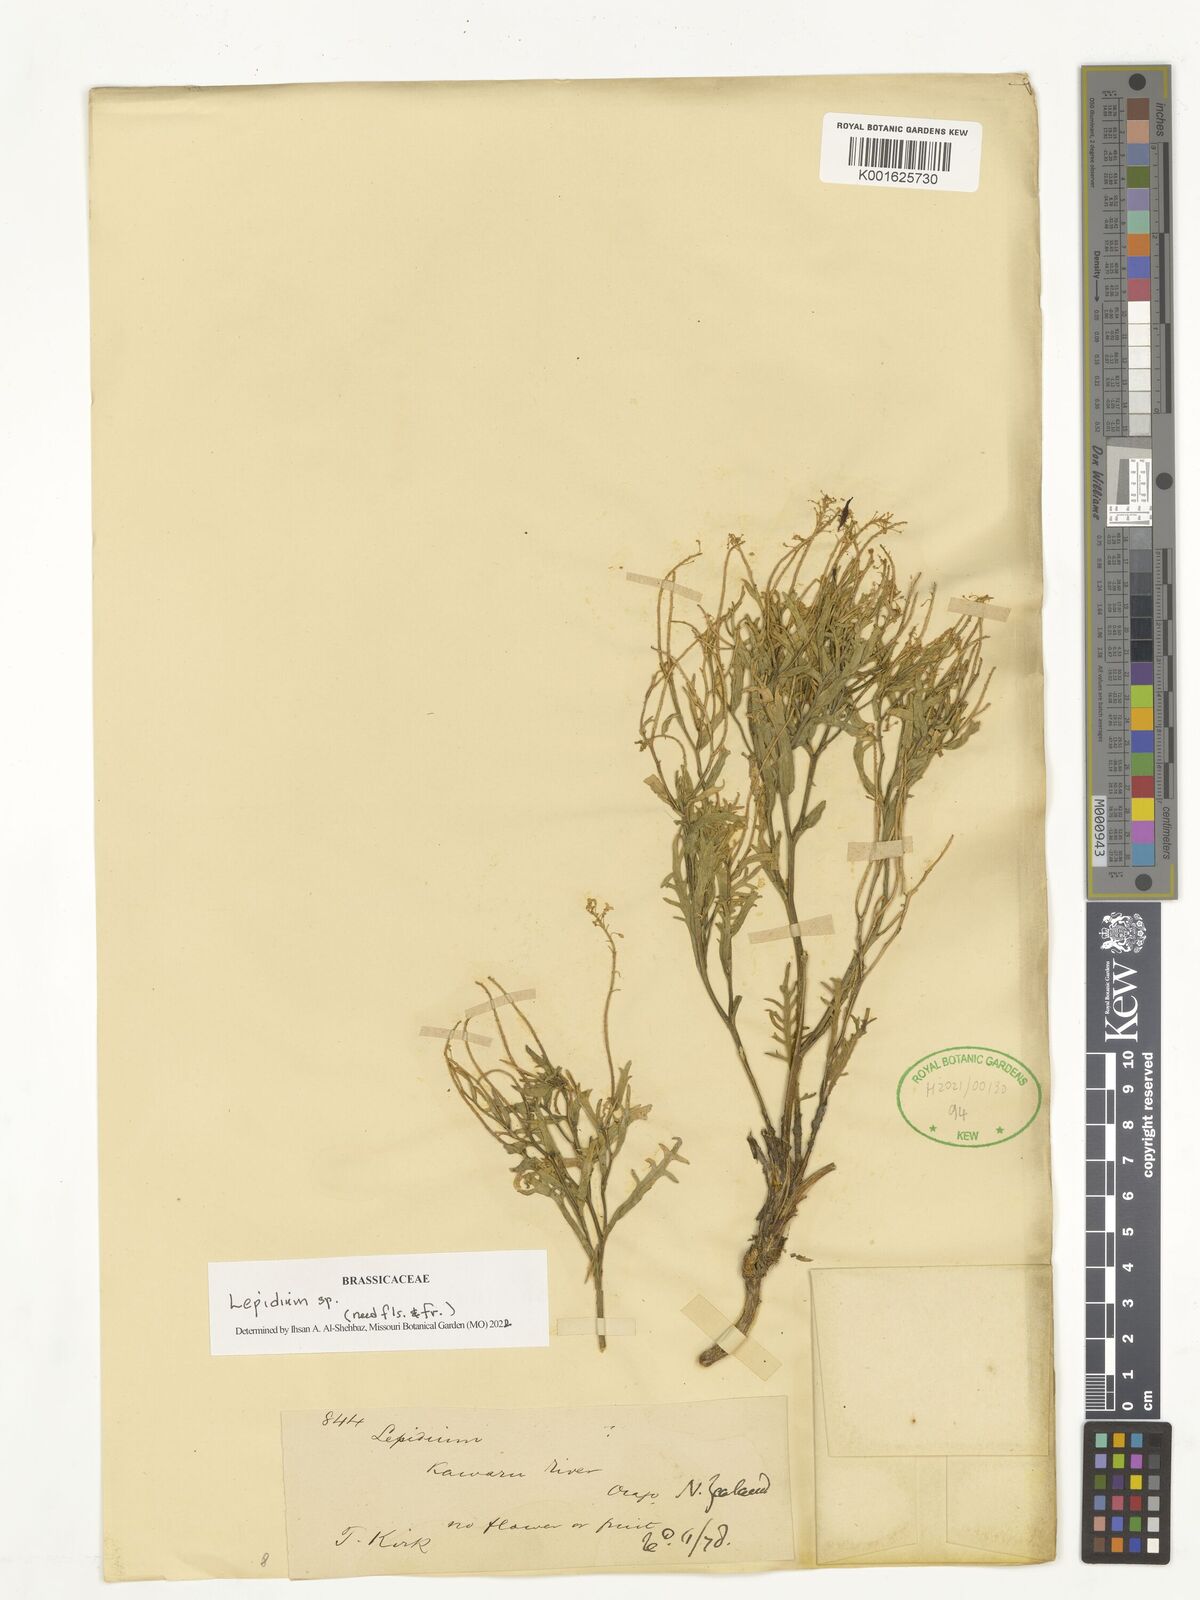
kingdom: Plantae
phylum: Tracheophyta
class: Magnoliopsida
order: Brassicales
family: Brassicaceae
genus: Lepidium
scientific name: Lepidium
